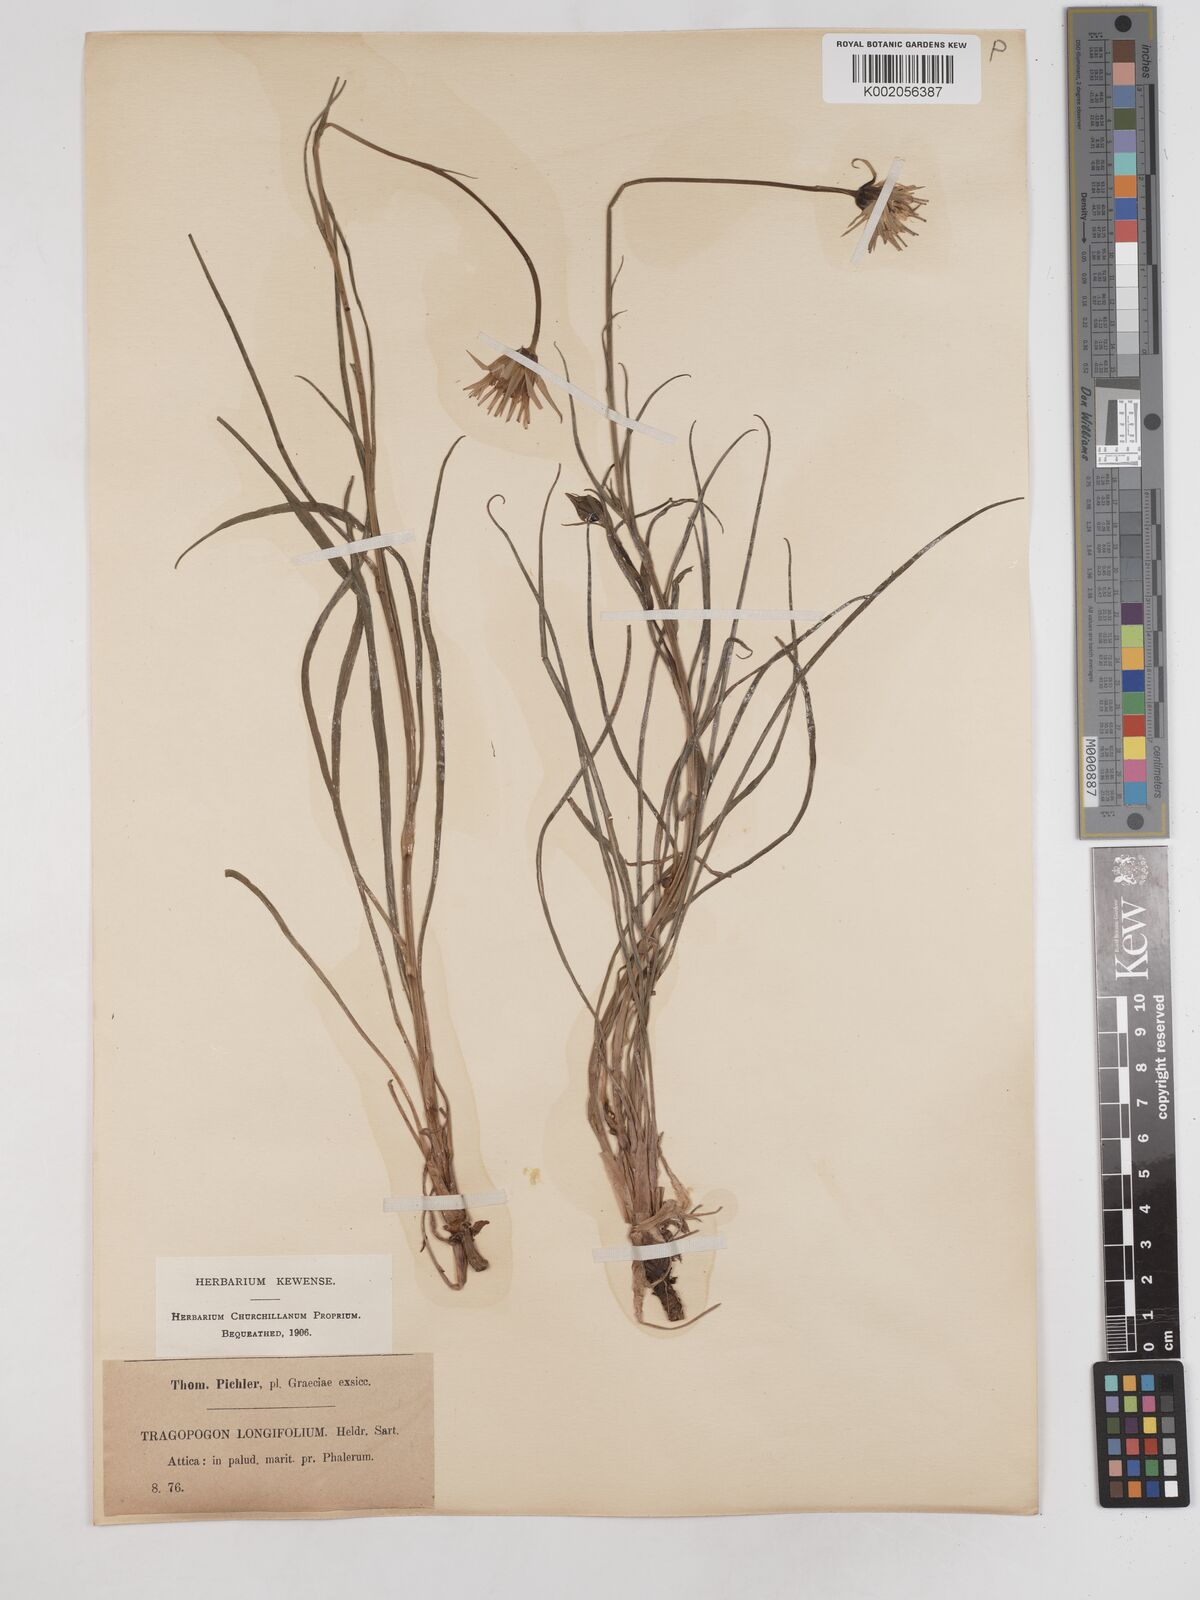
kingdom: Plantae
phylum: Tracheophyta
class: Magnoliopsida
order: Asterales
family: Asteraceae
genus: Tragopogon
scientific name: Tragopogon longifolius
